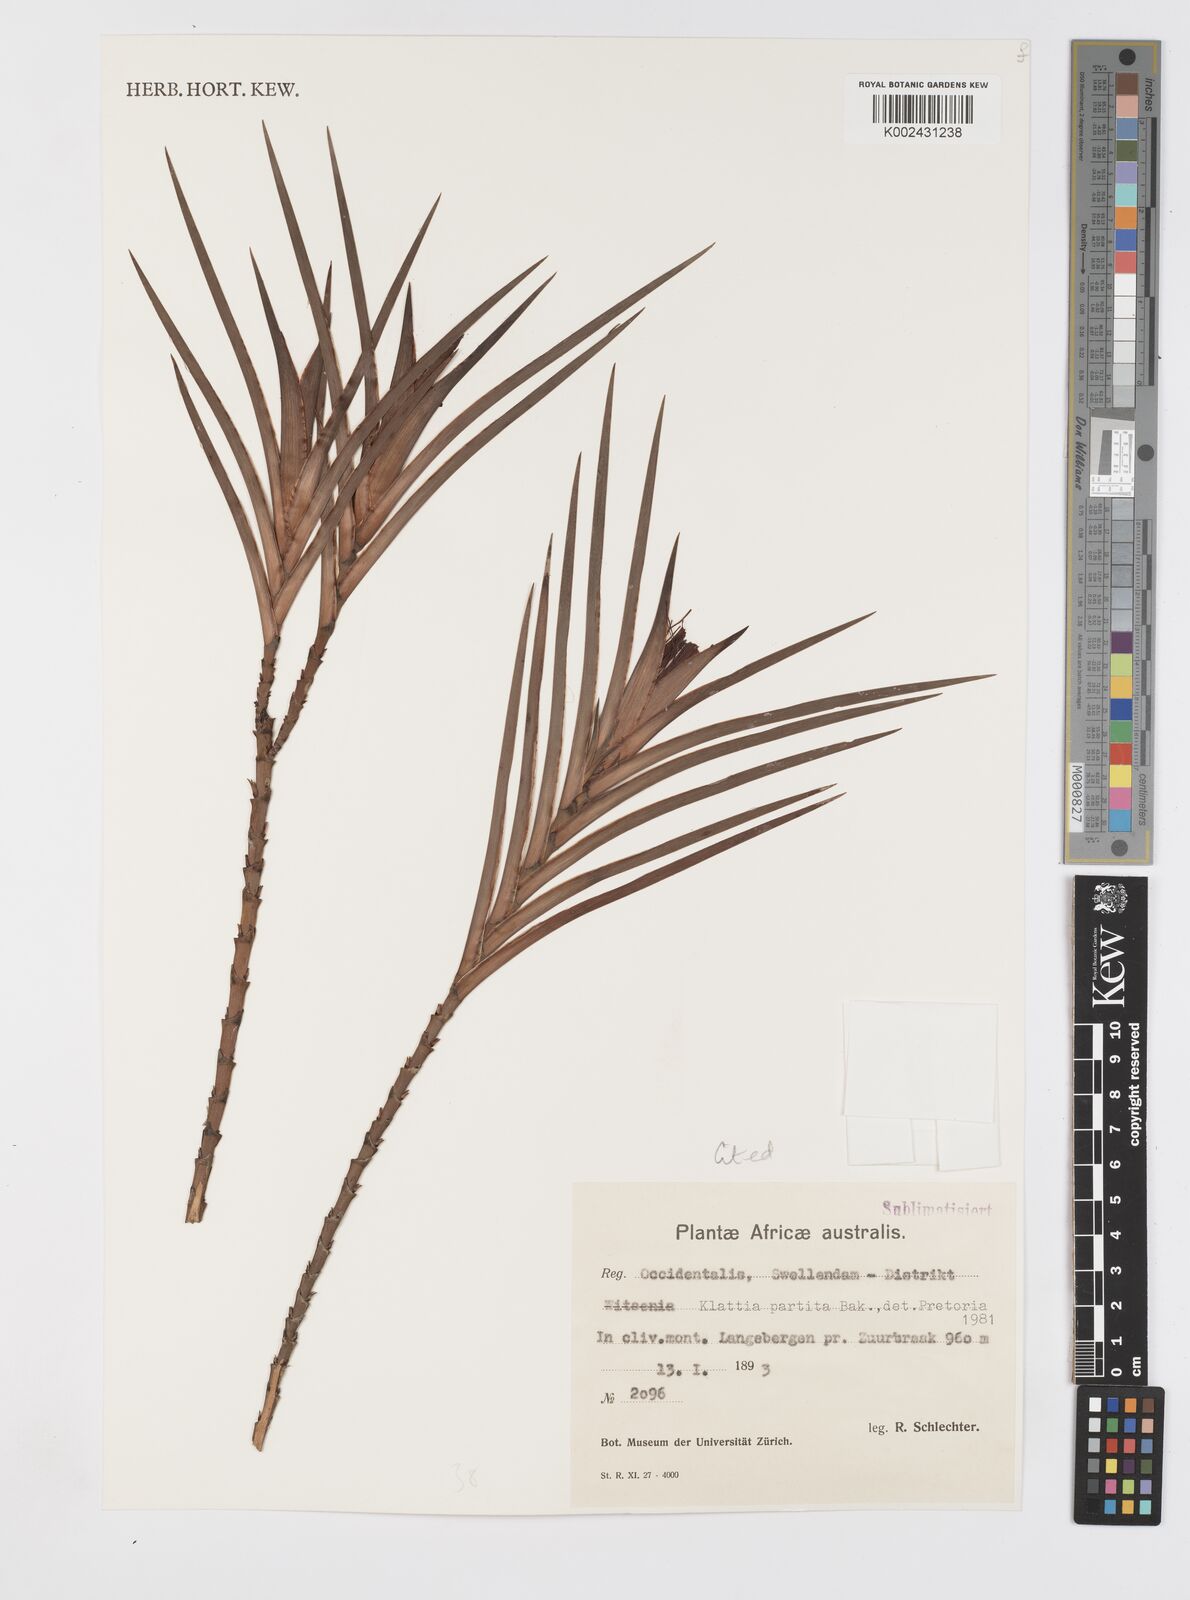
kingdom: Plantae
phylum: Tracheophyta
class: Liliopsida
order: Asparagales
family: Iridaceae
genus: Klattia
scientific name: Klattia partita
